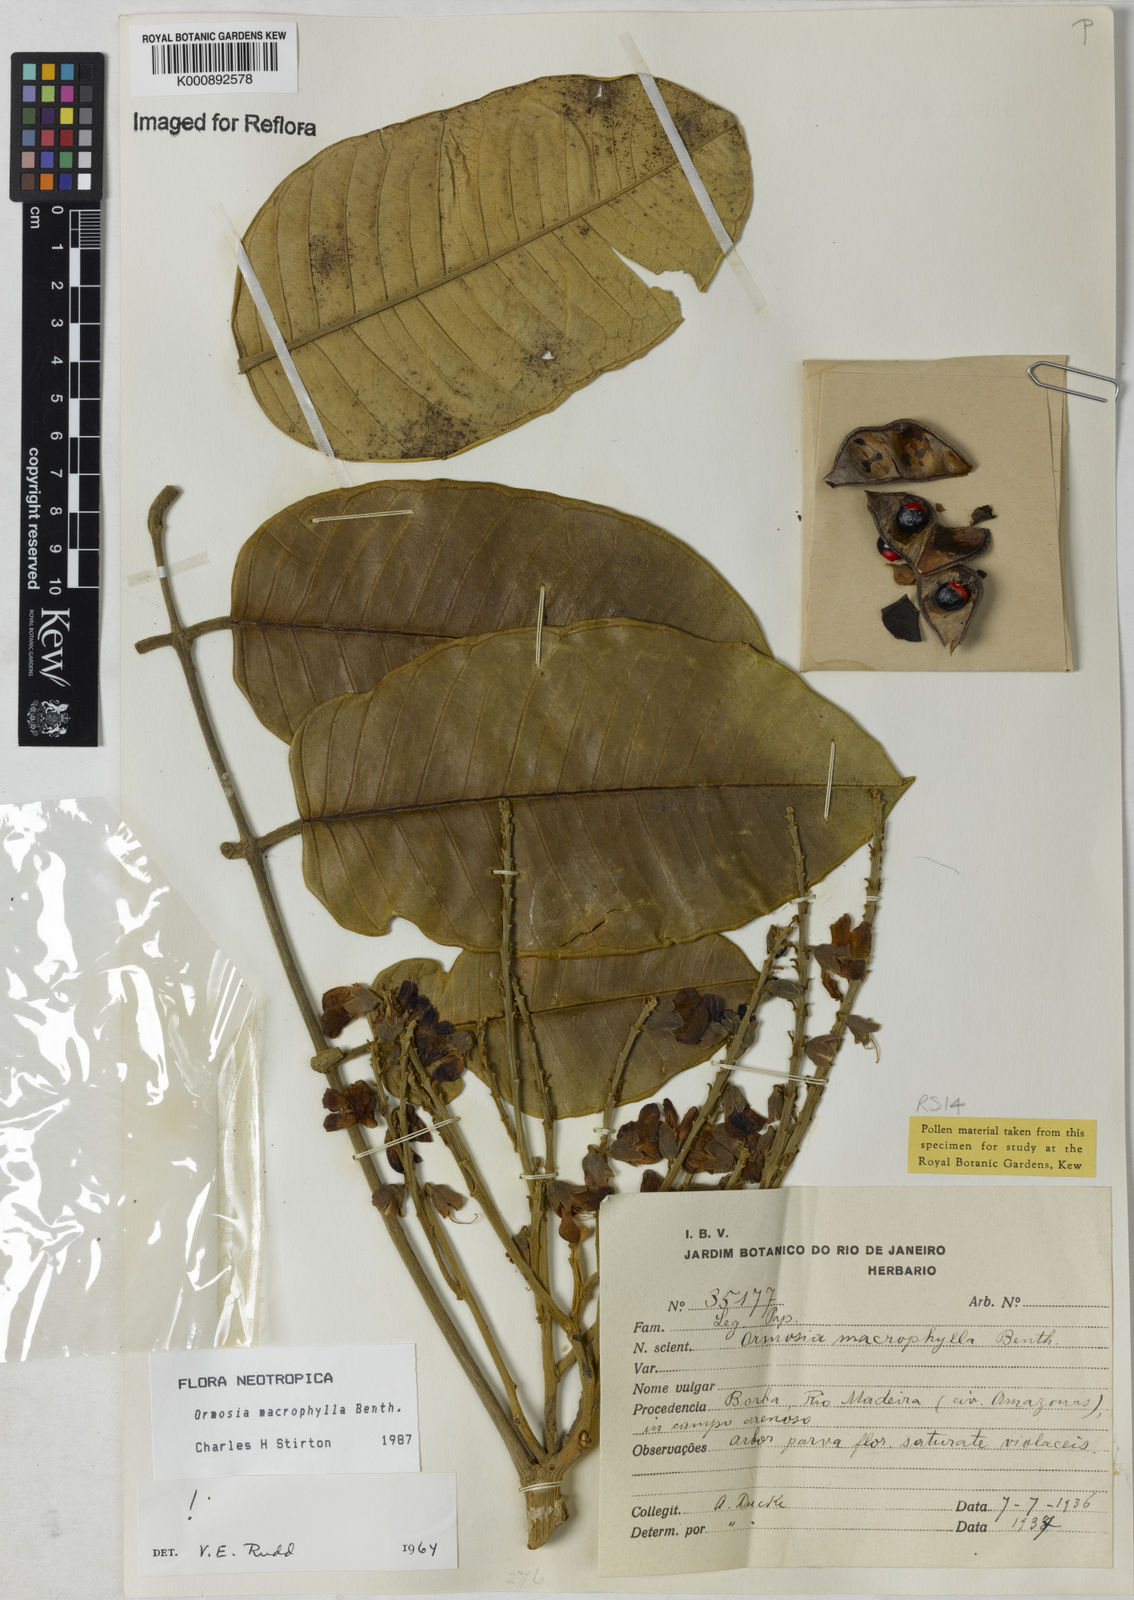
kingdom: Plantae
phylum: Tracheophyta
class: Magnoliopsida
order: Fabales
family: Fabaceae
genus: Ormosia
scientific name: Ormosia macrophylla
